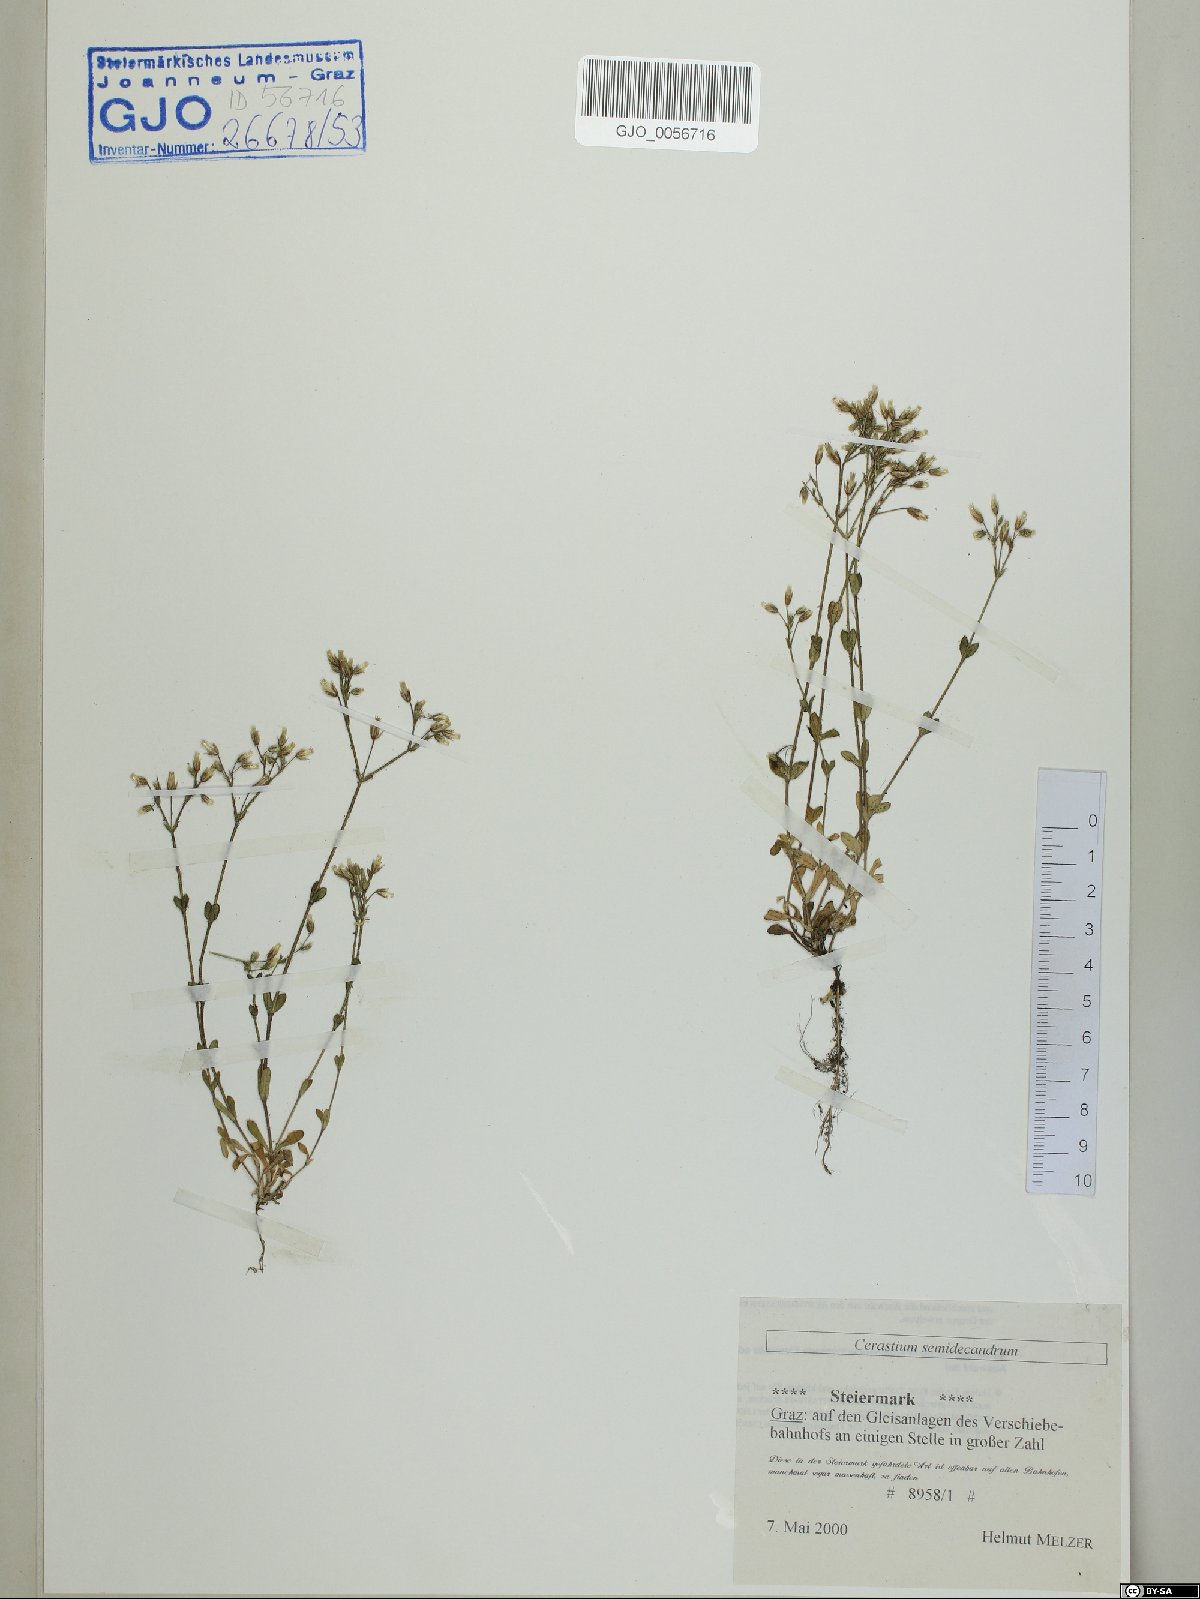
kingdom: Plantae
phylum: Tracheophyta
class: Magnoliopsida
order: Caryophyllales
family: Caryophyllaceae
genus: Cerastium
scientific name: Cerastium semidecandrum
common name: Little mouse-ear
